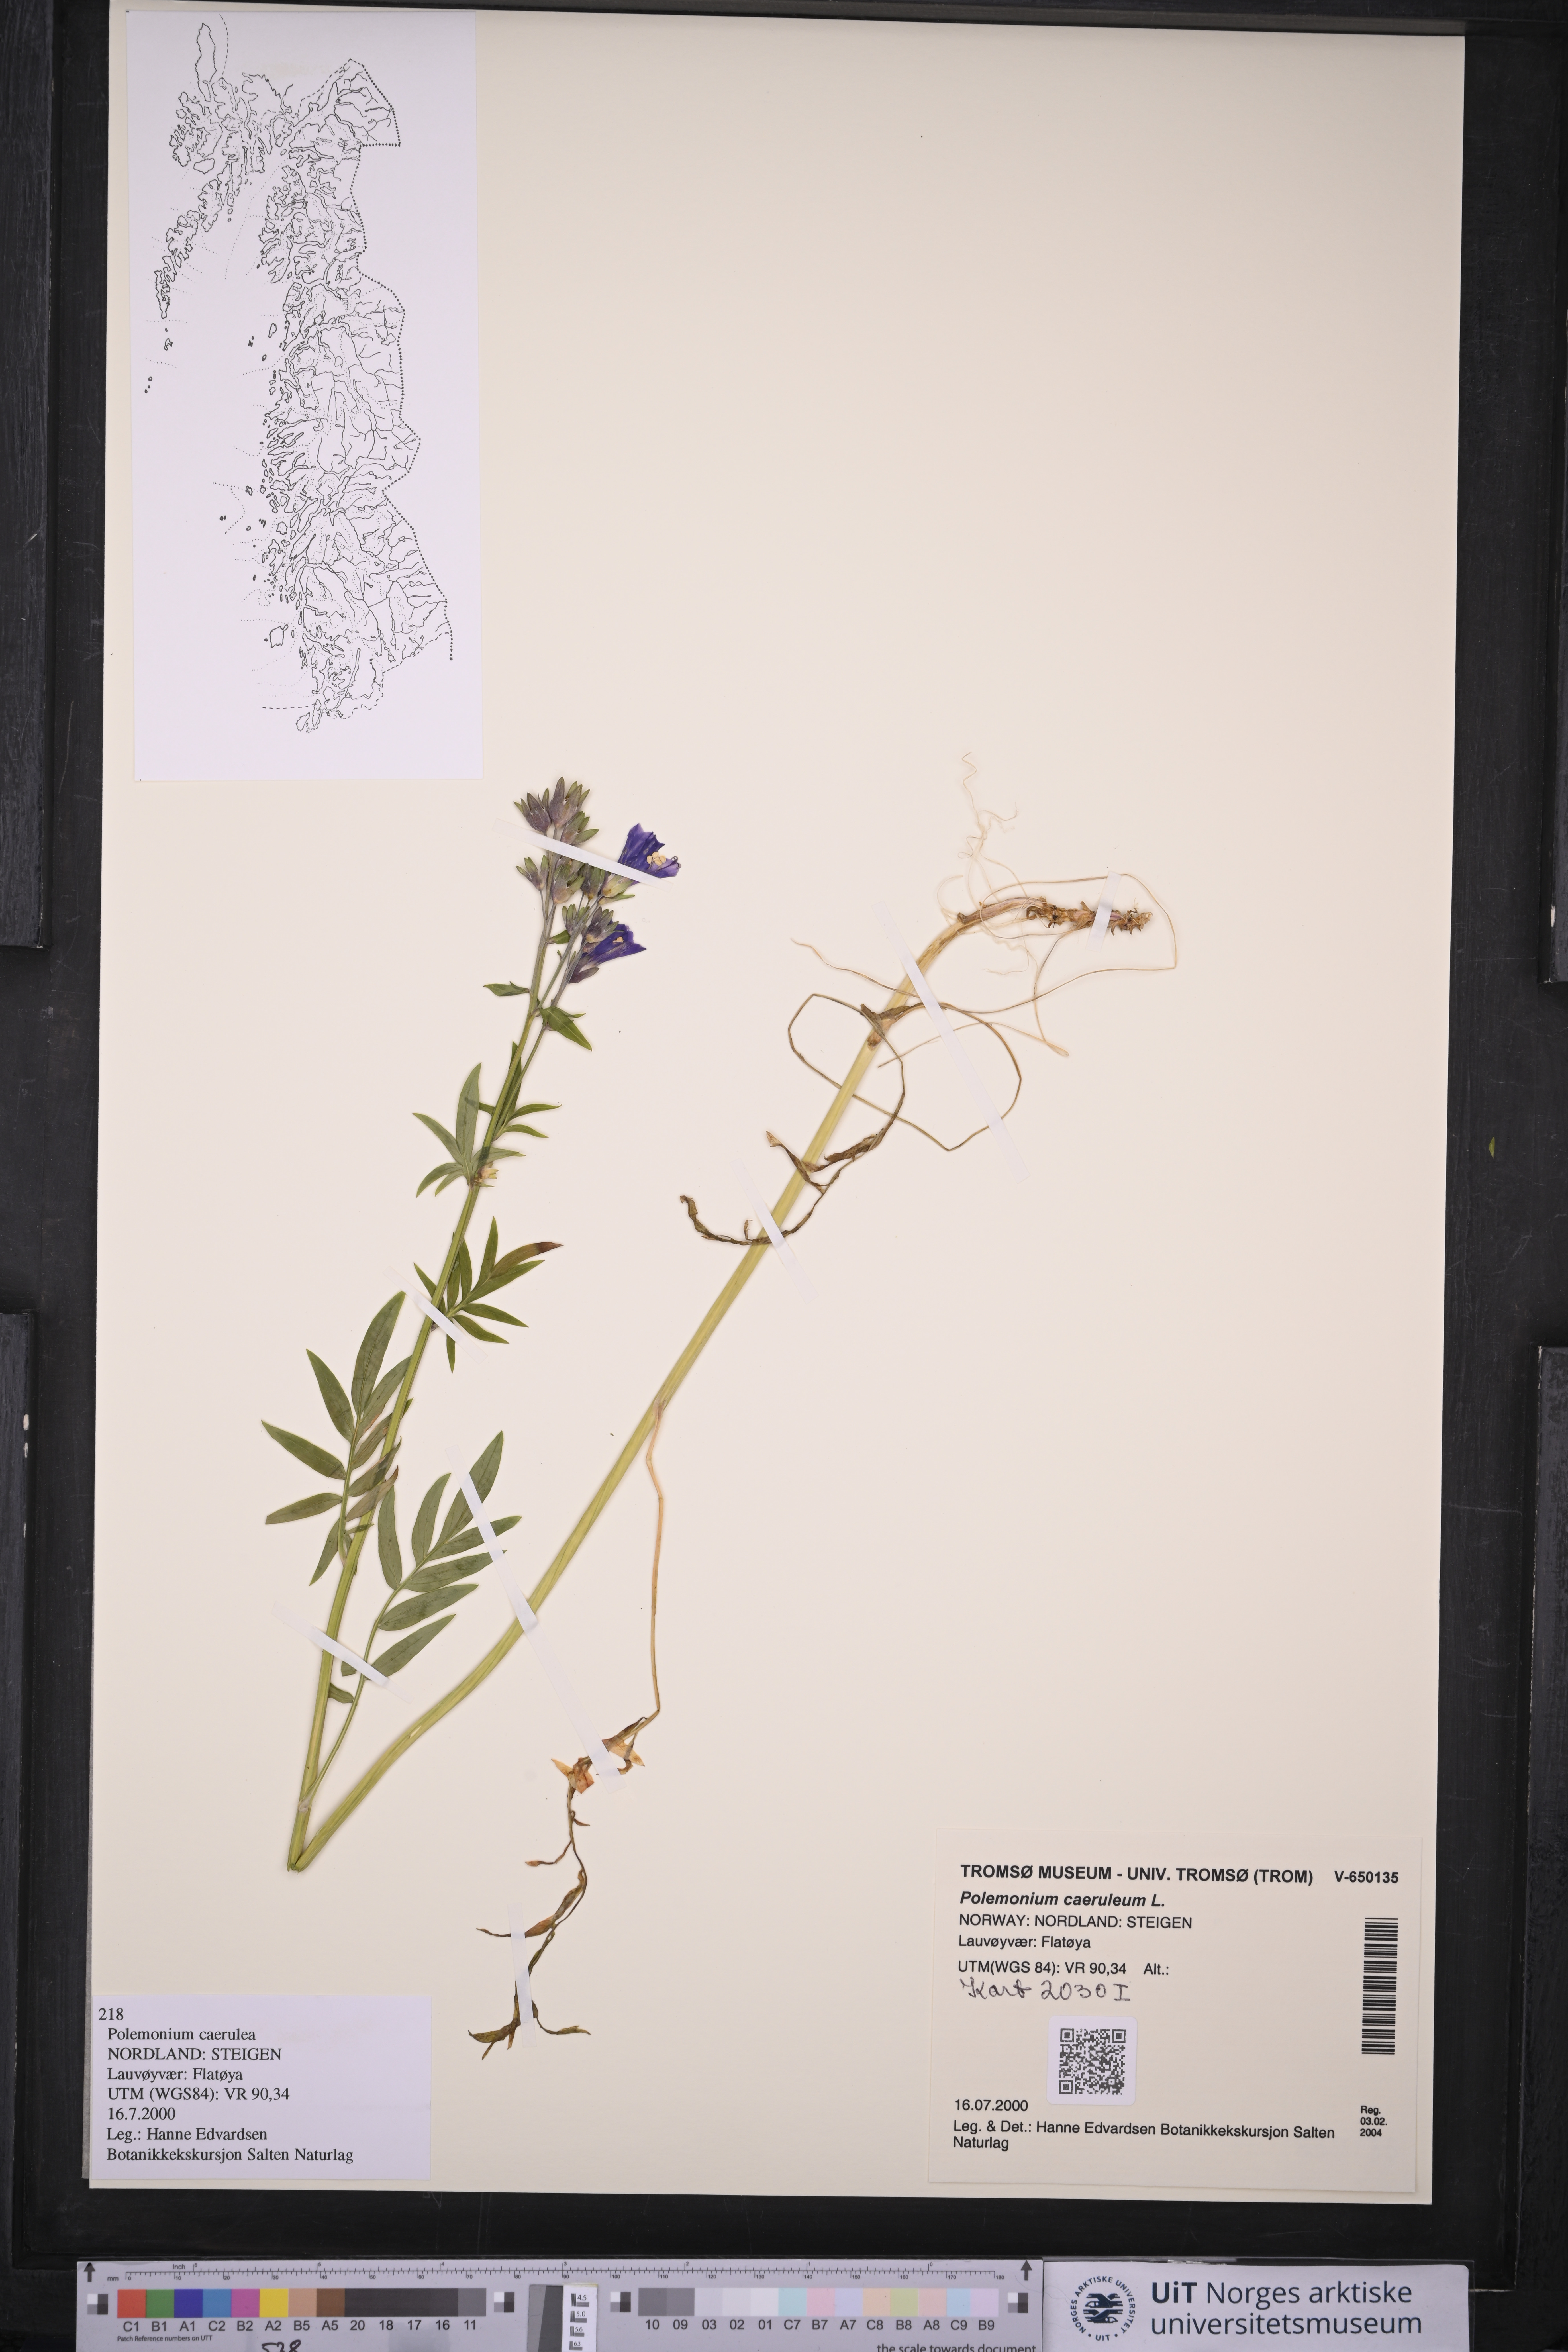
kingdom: Plantae
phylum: Tracheophyta
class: Magnoliopsida
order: Ericales
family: Polemoniaceae
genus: Polemonium
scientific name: Polemonium caeruleum
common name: Jacob's-ladder
